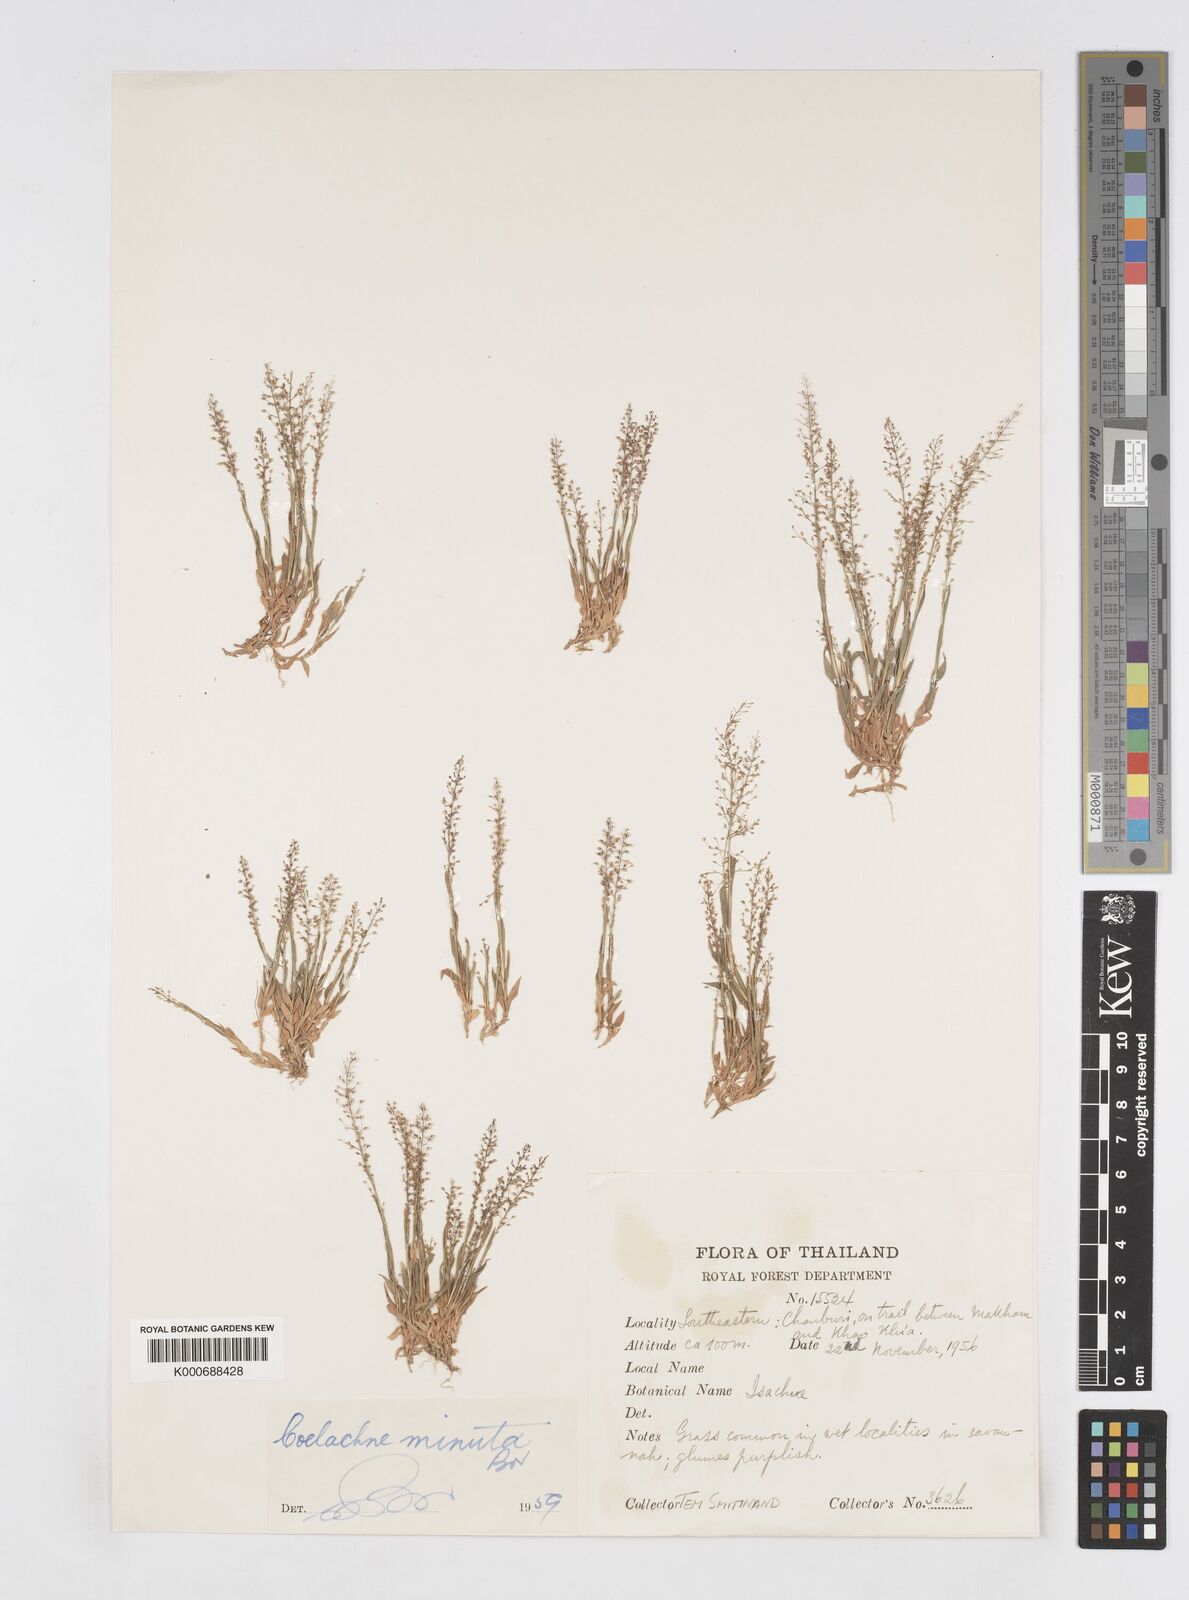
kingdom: Plantae
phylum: Tracheophyta
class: Liliopsida
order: Poales
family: Poaceae
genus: Coelachne
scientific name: Coelachne minuta
